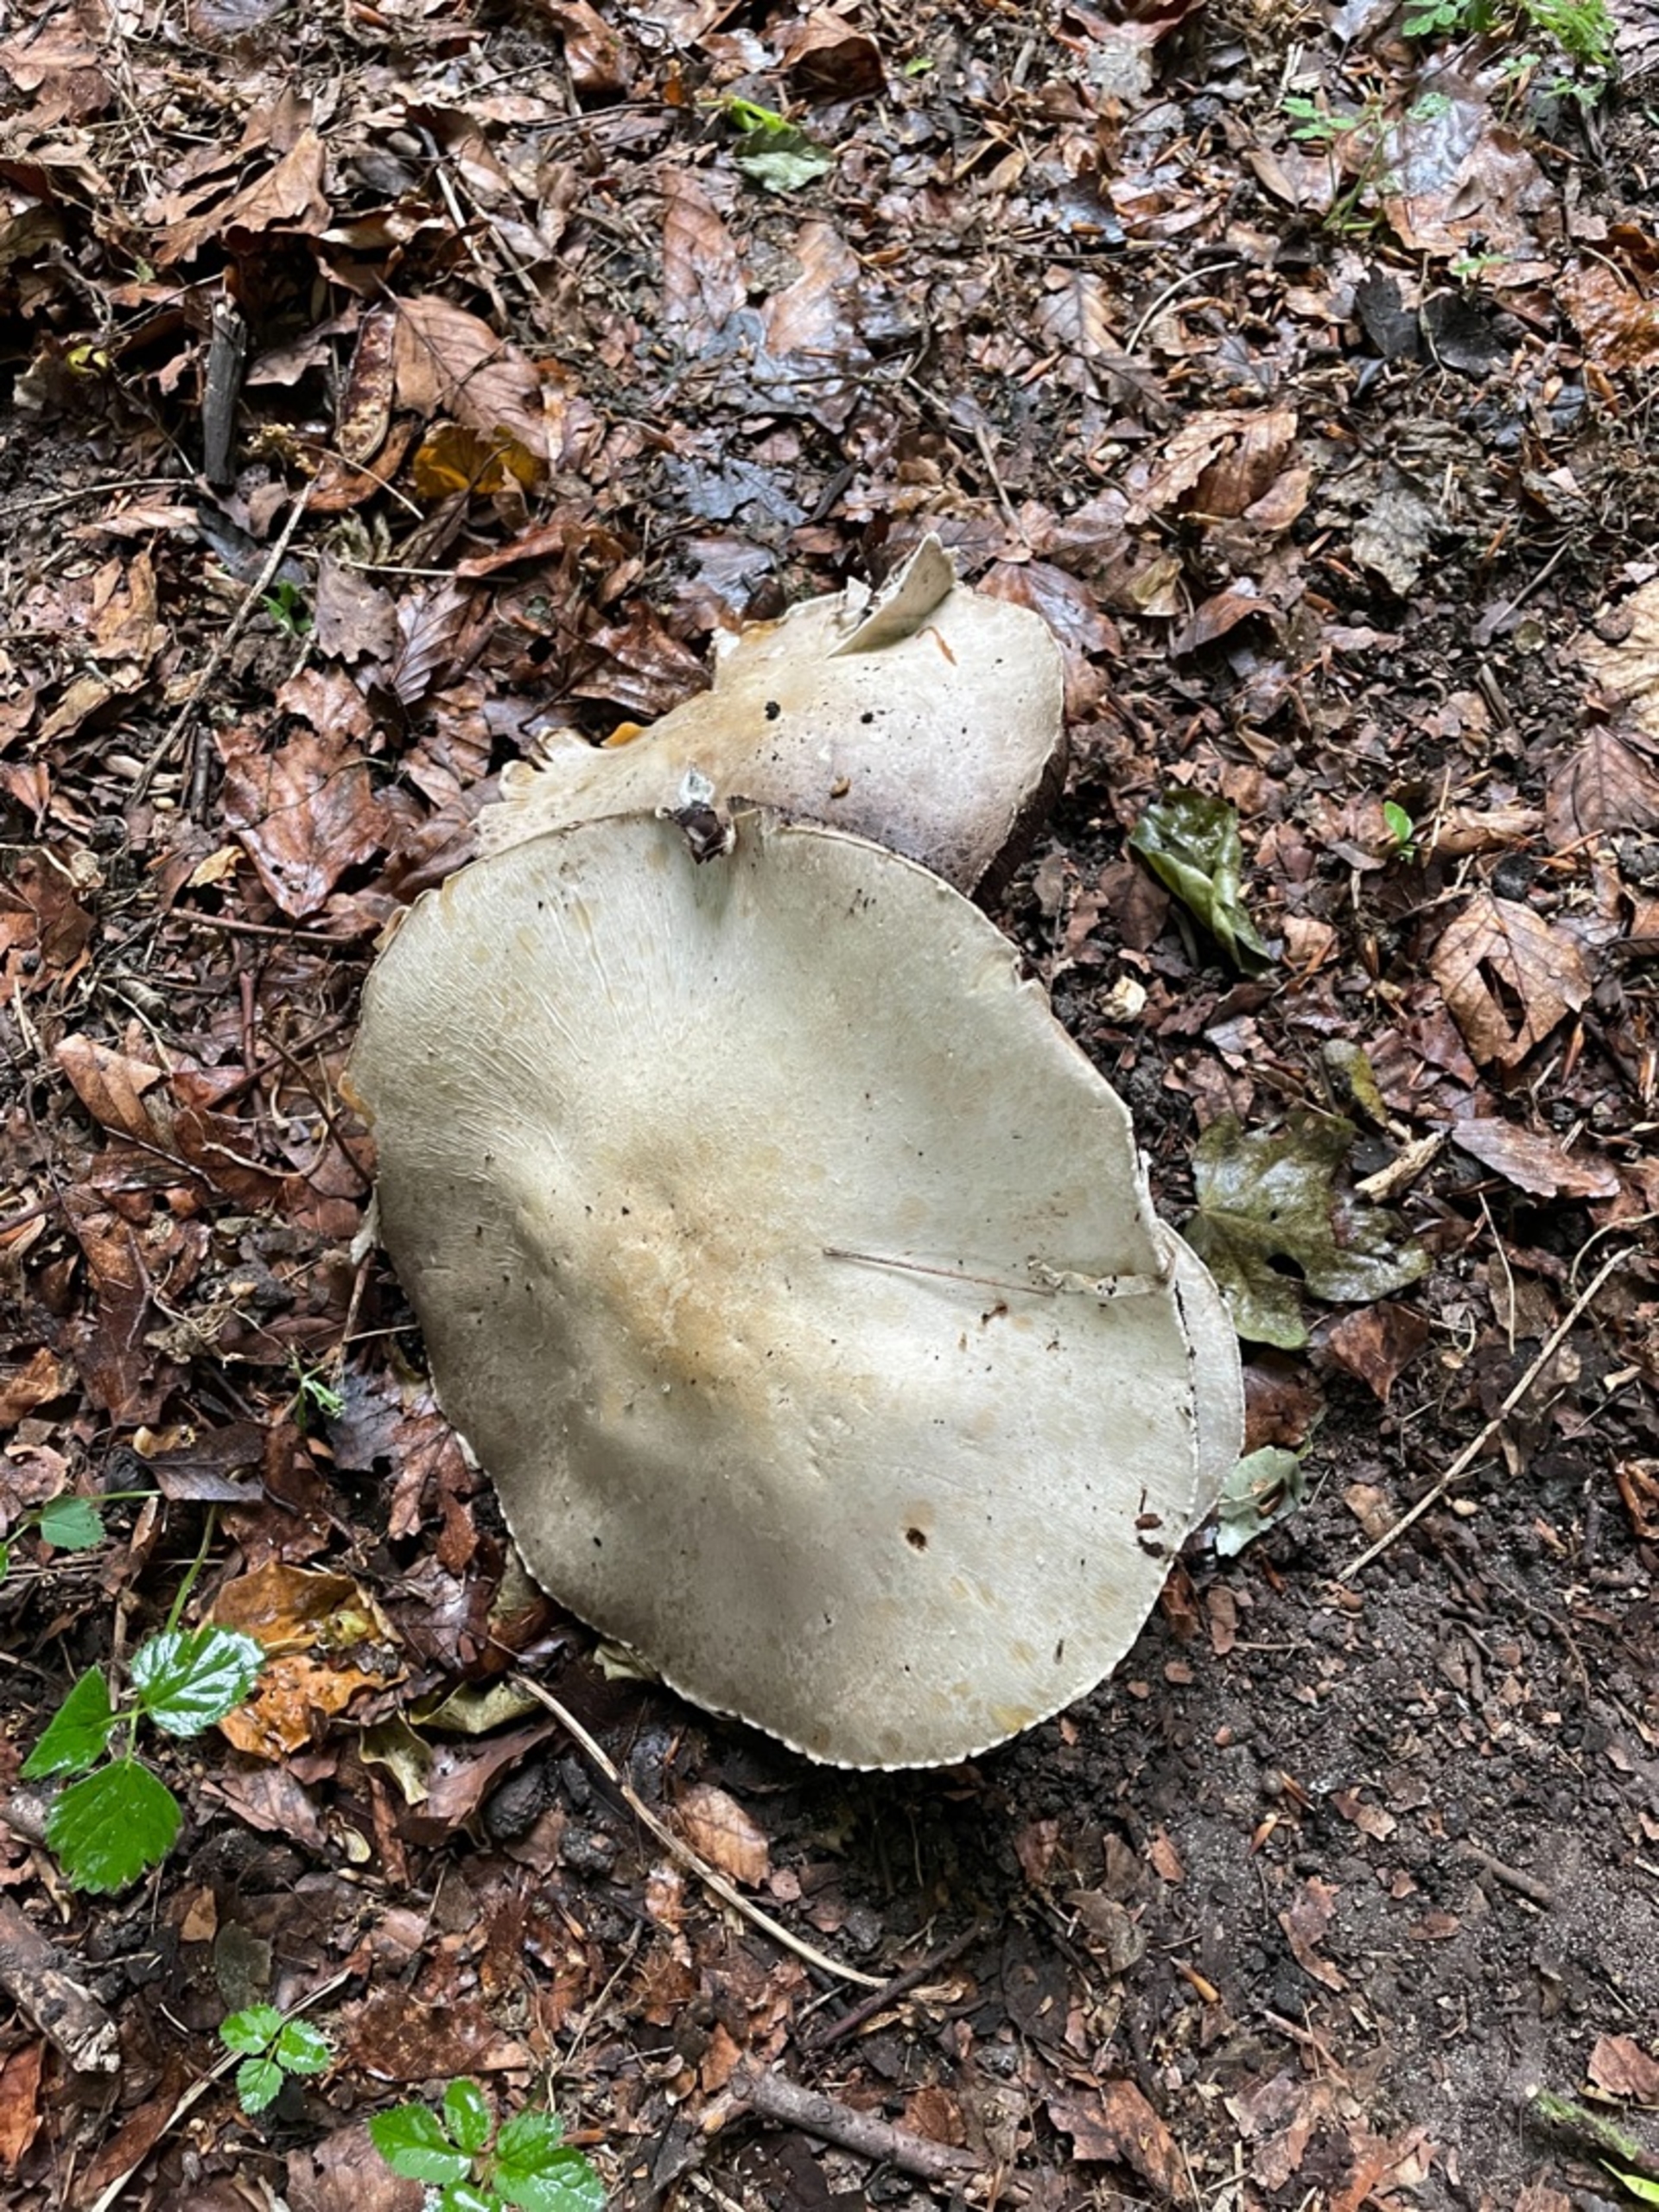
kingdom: Fungi
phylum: Basidiomycota
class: Agaricomycetes
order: Agaricales
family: Agaricaceae
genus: Agaricus
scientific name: Agaricus
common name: Champignon
